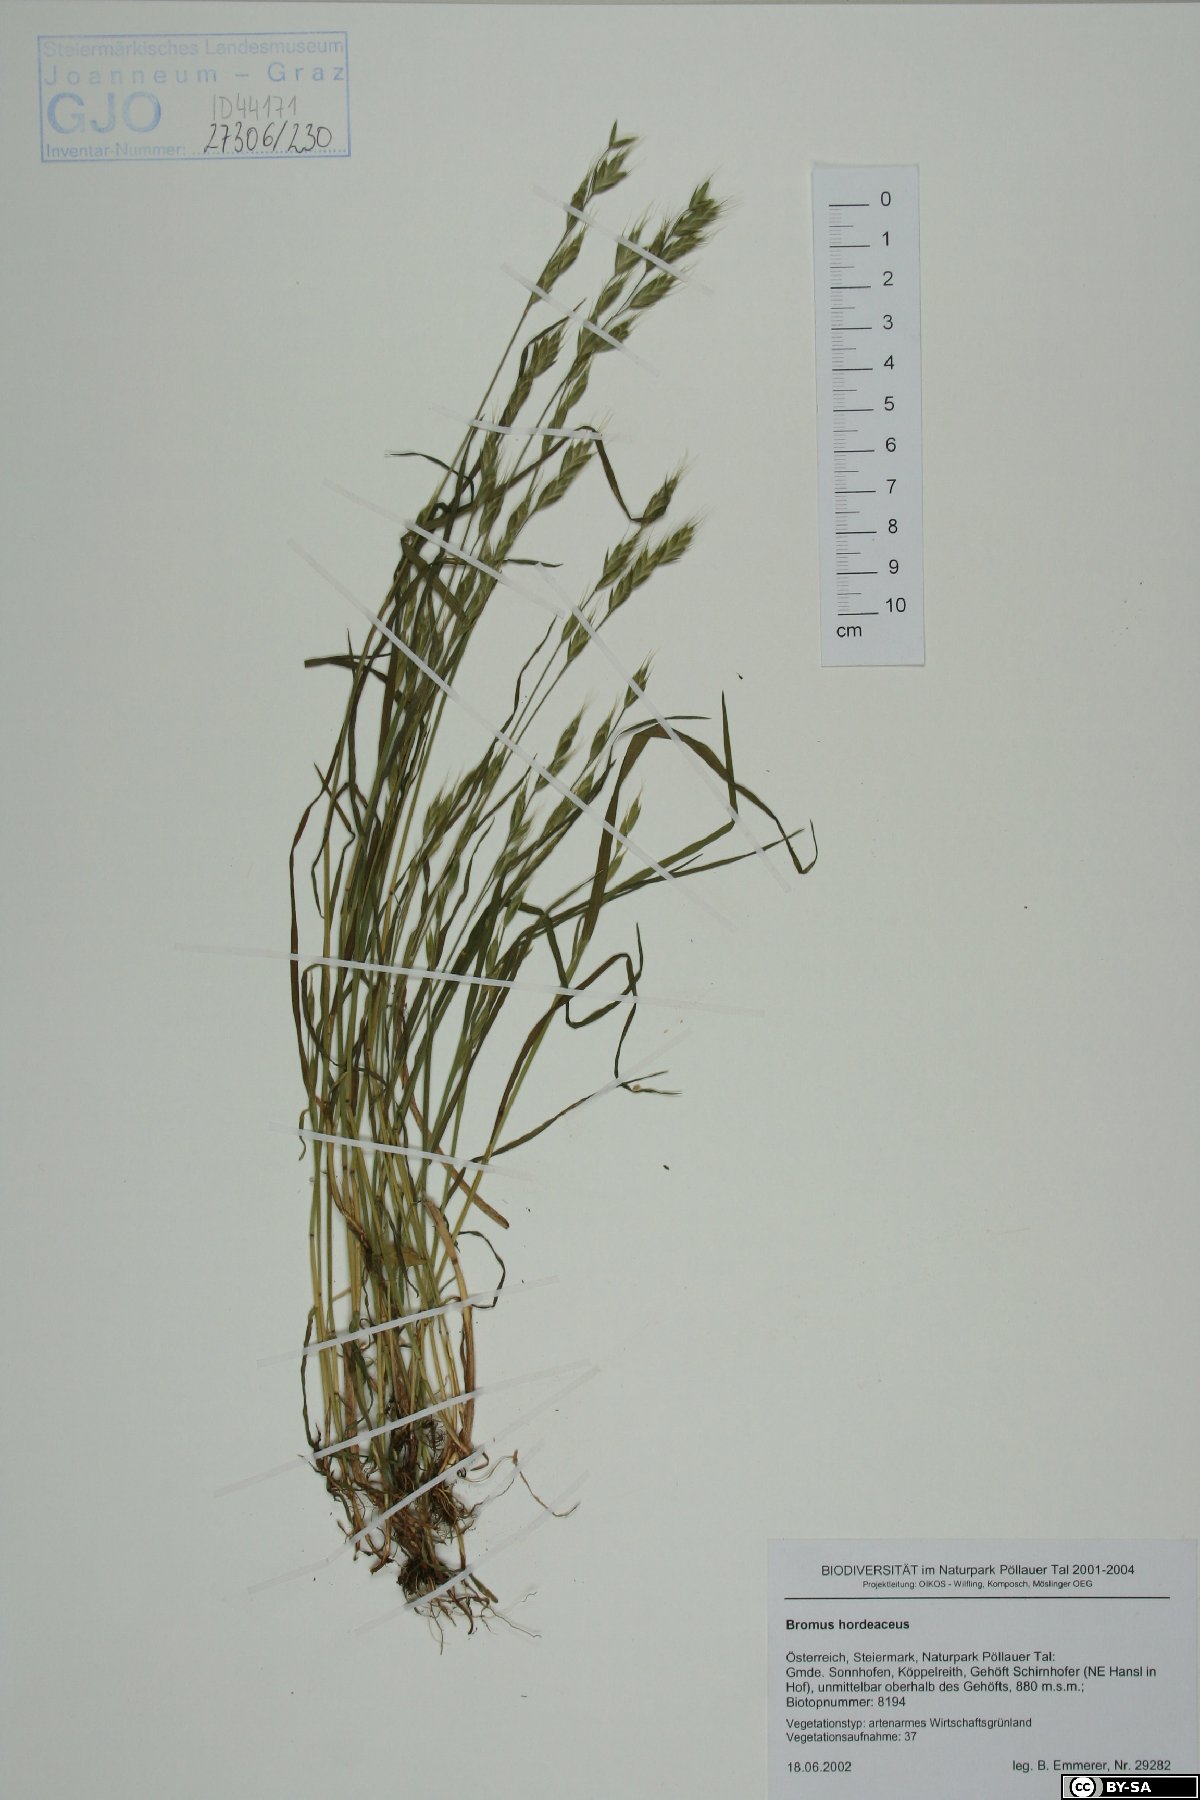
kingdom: Plantae
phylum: Tracheophyta
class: Liliopsida
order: Poales
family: Poaceae
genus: Bromus
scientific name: Bromus hordeaceus
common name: Soft brome
